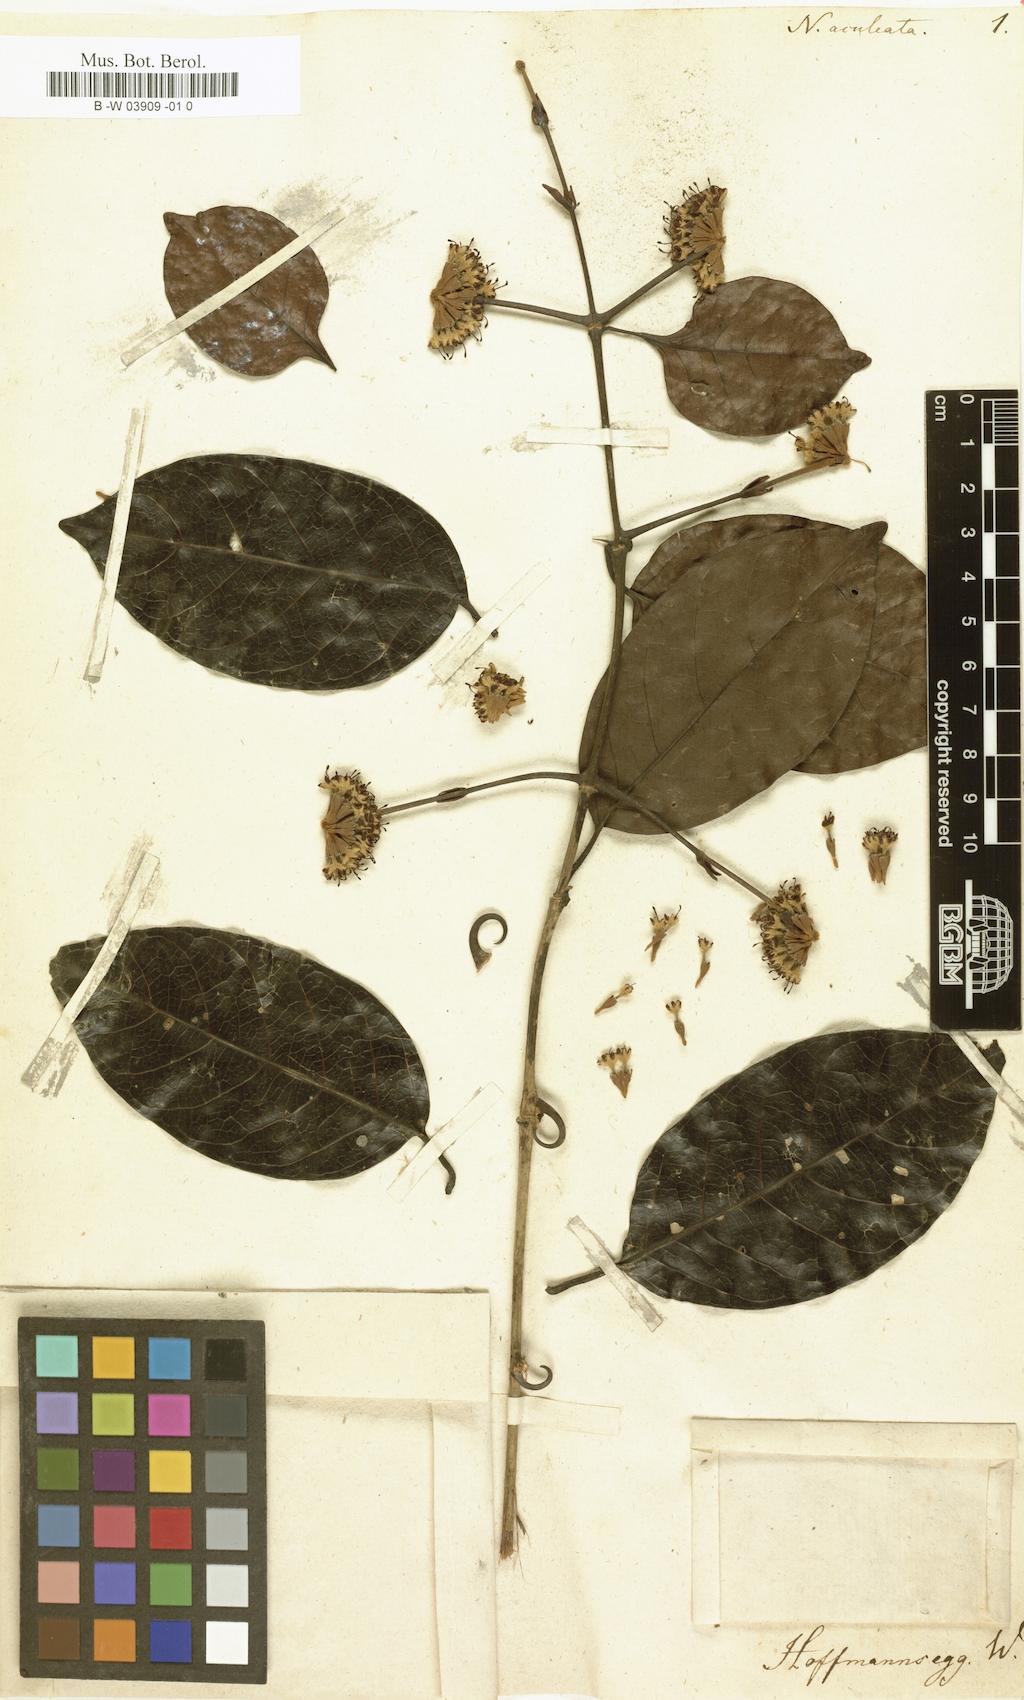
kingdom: Plantae
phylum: Tracheophyta
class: Magnoliopsida
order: Gentianales
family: Rubiaceae
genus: Uncaria
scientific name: Uncaria
